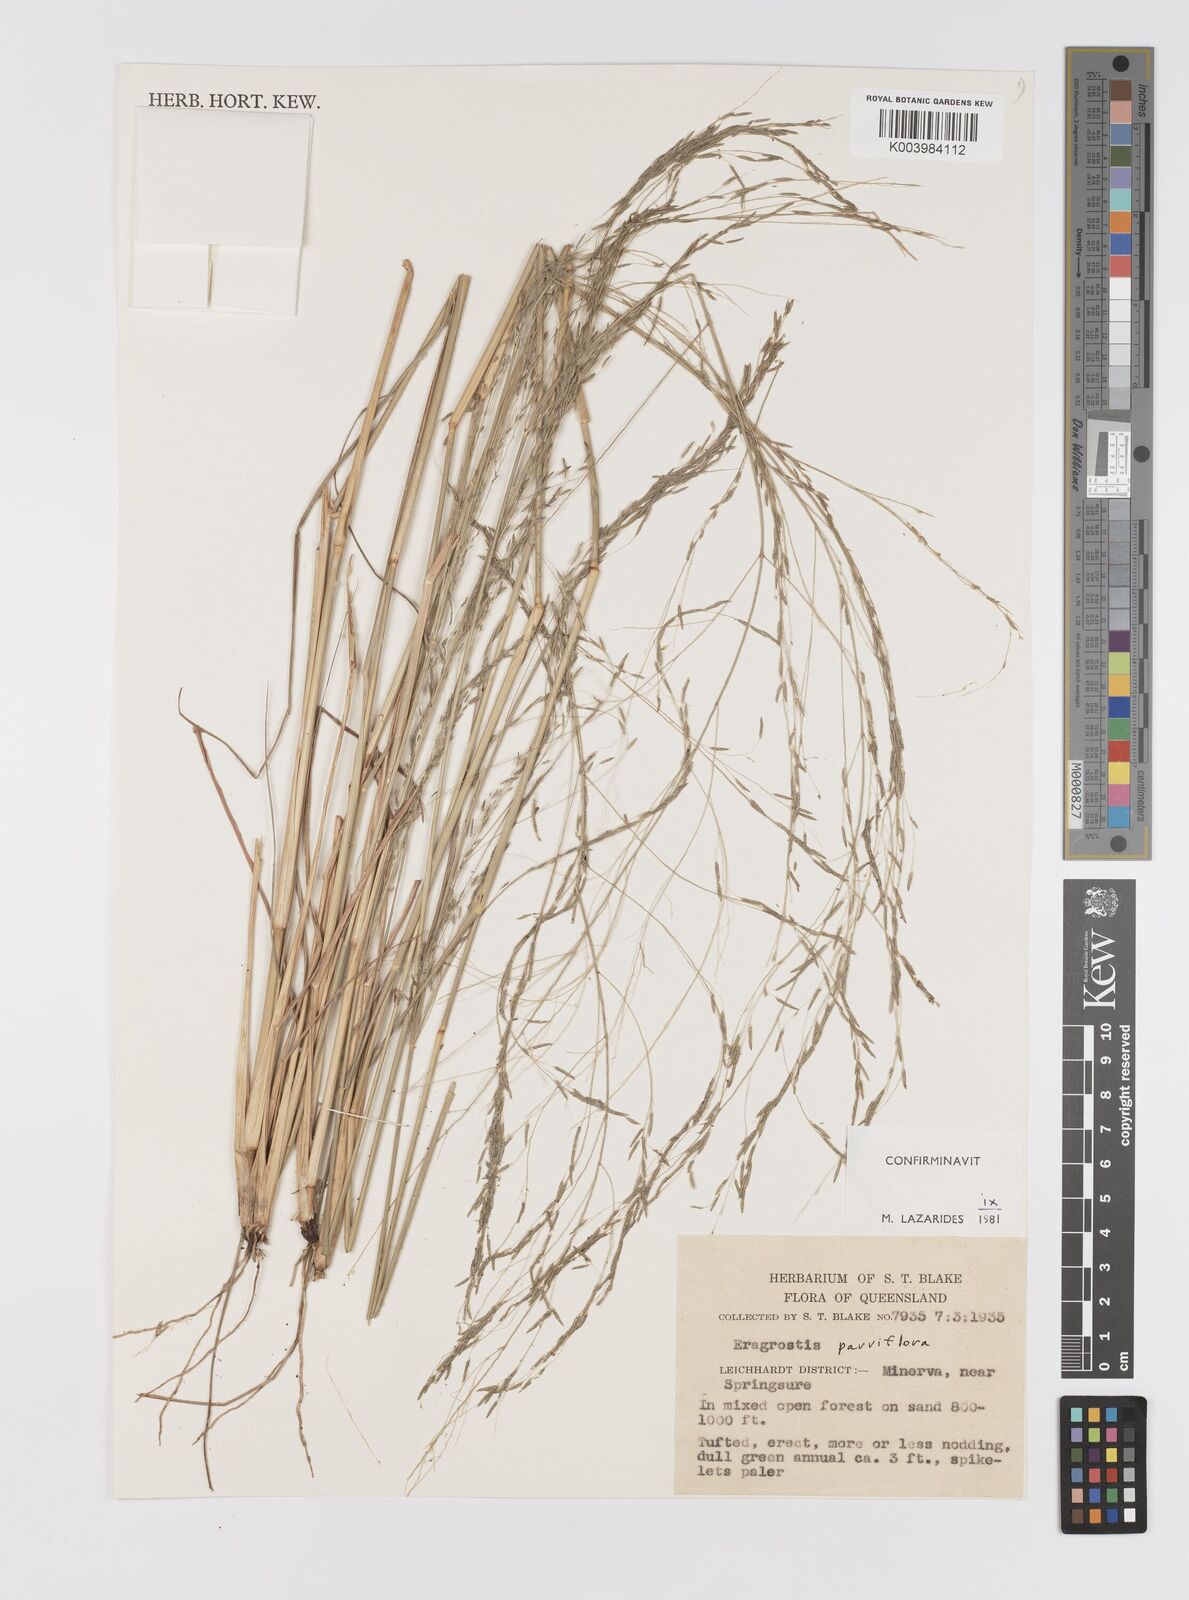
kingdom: Plantae
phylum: Tracheophyta
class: Liliopsida
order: Poales
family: Poaceae
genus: Eragrostis
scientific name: Eragrostis parviflora
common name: Weeping love-grass
